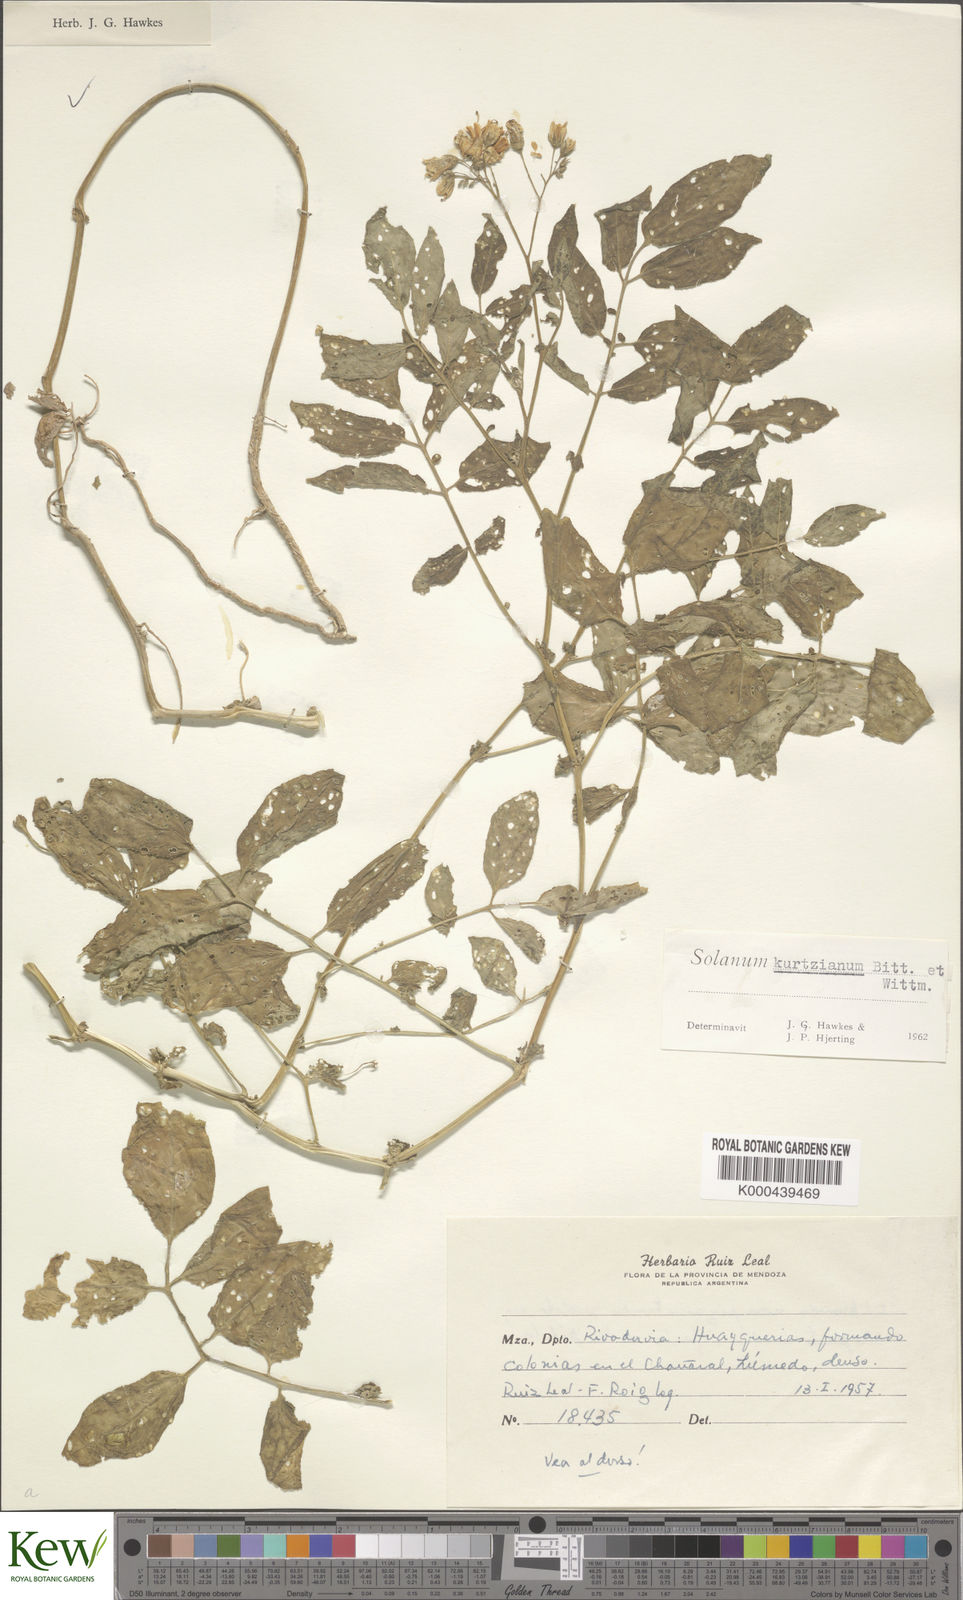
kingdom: Plantae
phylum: Tracheophyta
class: Magnoliopsida
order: Solanales
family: Solanaceae
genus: Solanum
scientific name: Solanum kurtzianum
